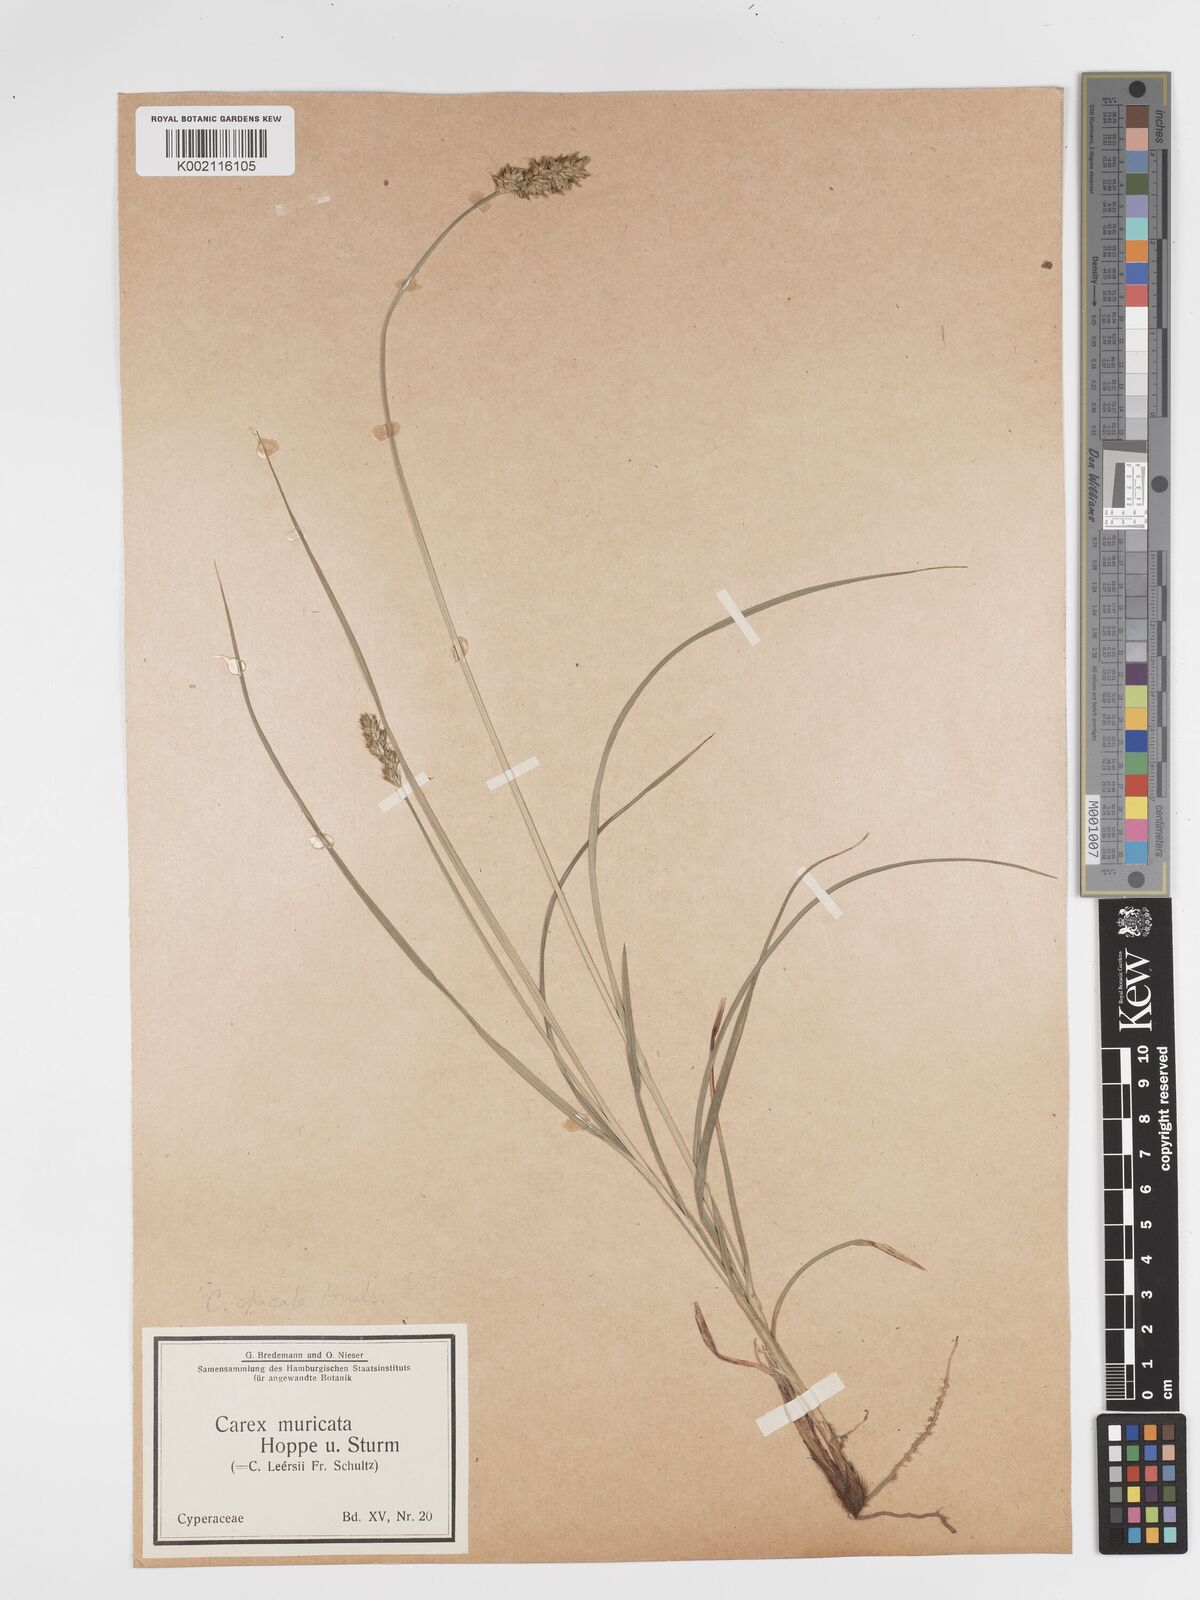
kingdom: Plantae
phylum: Tracheophyta
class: Liliopsida
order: Poales
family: Cyperaceae
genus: Carex
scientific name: Carex spicata
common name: Spiked sedge
